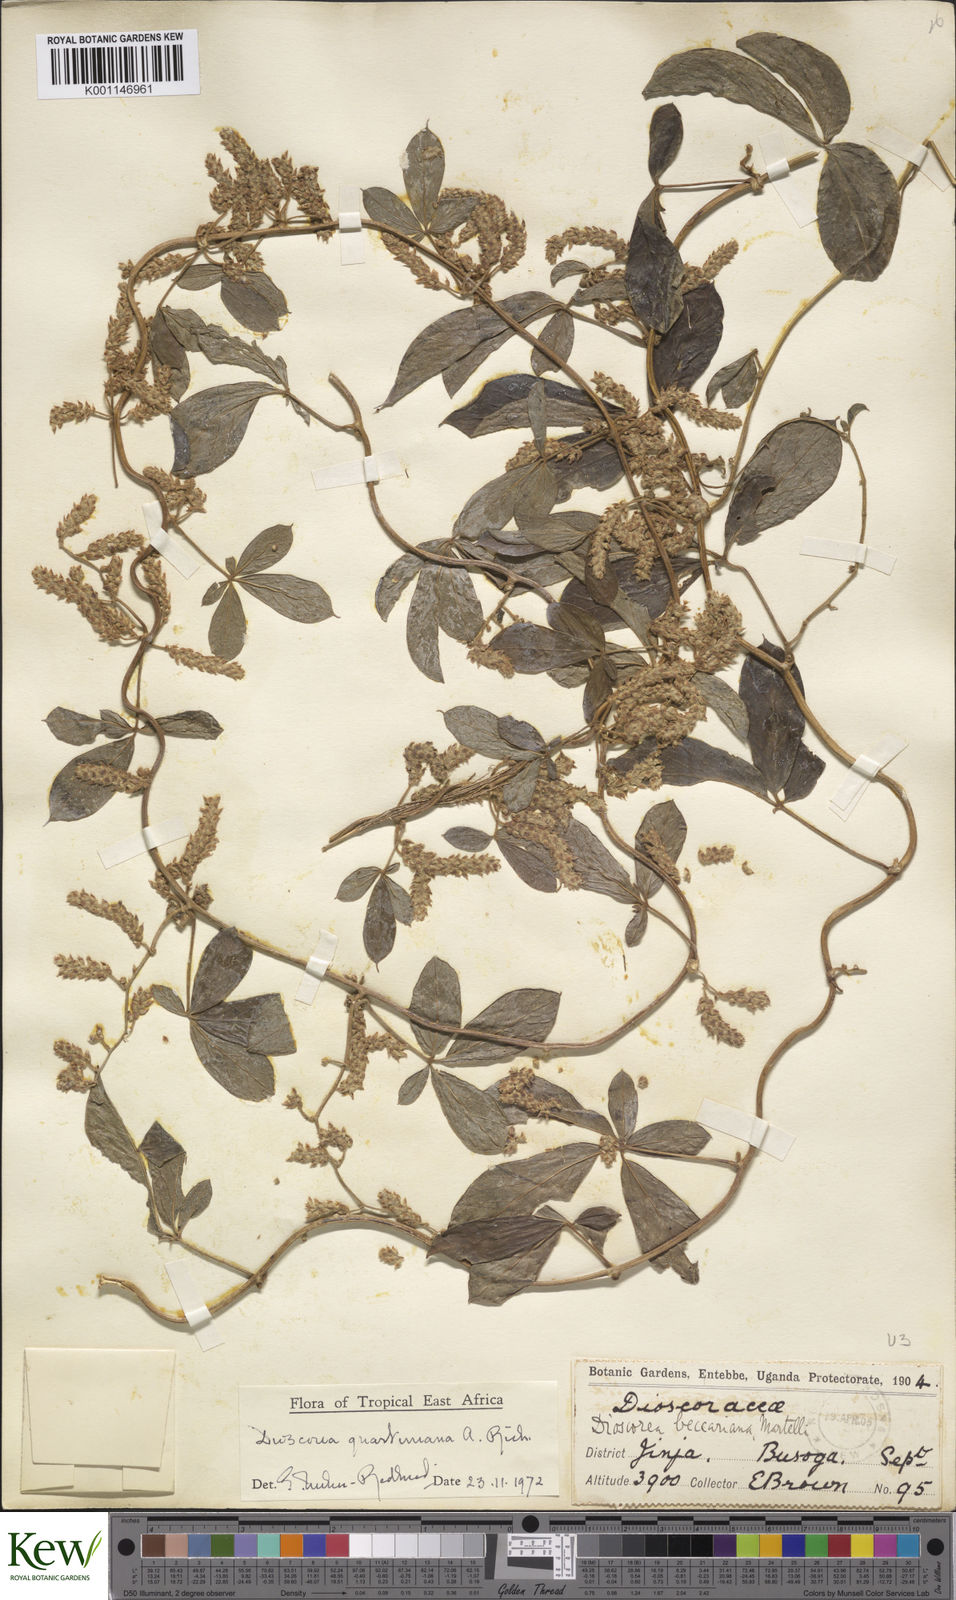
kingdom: Plantae
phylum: Tracheophyta
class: Liliopsida
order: Dioscoreales
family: Dioscoreaceae
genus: Dioscorea
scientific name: Dioscorea quartiniana
